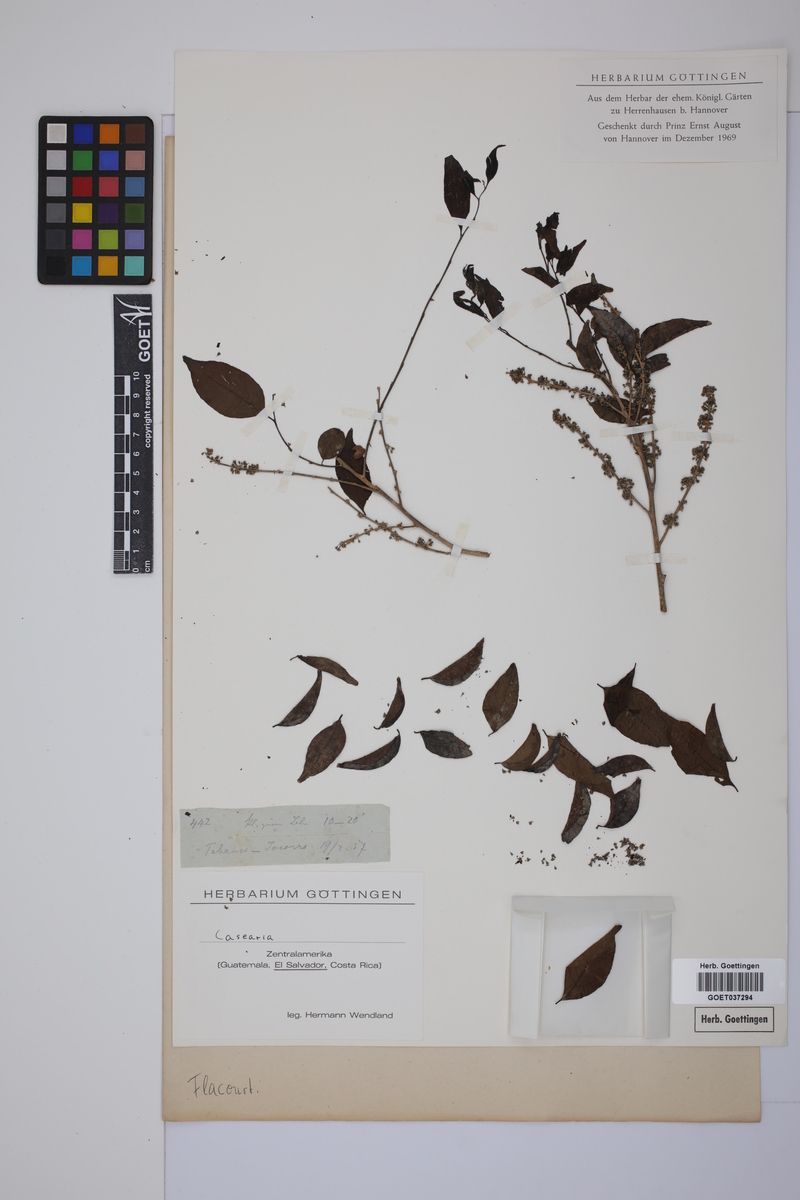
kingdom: Plantae
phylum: Tracheophyta
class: Magnoliopsida
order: Malpighiales
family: Salicaceae
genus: Casearia
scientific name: Casearia
